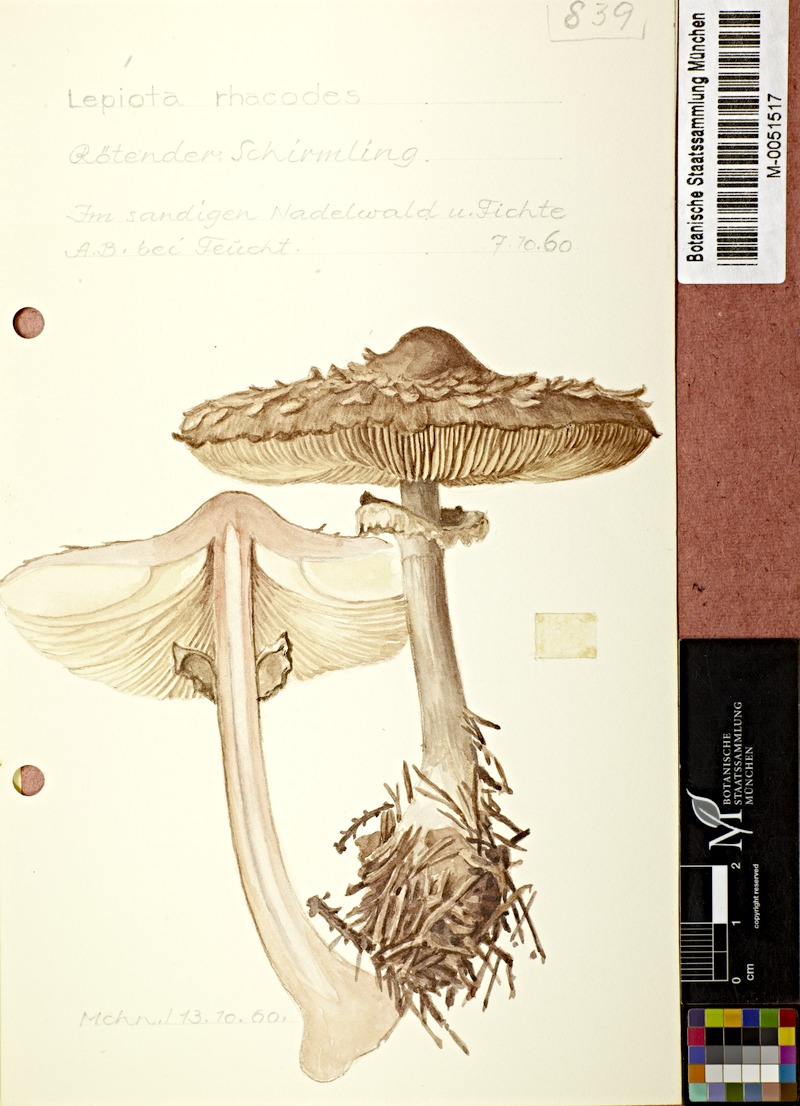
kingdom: Fungi
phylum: Basidiomycota
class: Agaricomycetes
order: Agaricales
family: Agaricaceae
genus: Chlorophyllum
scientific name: Chlorophyllum rhacodes
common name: Shaggy parasol
